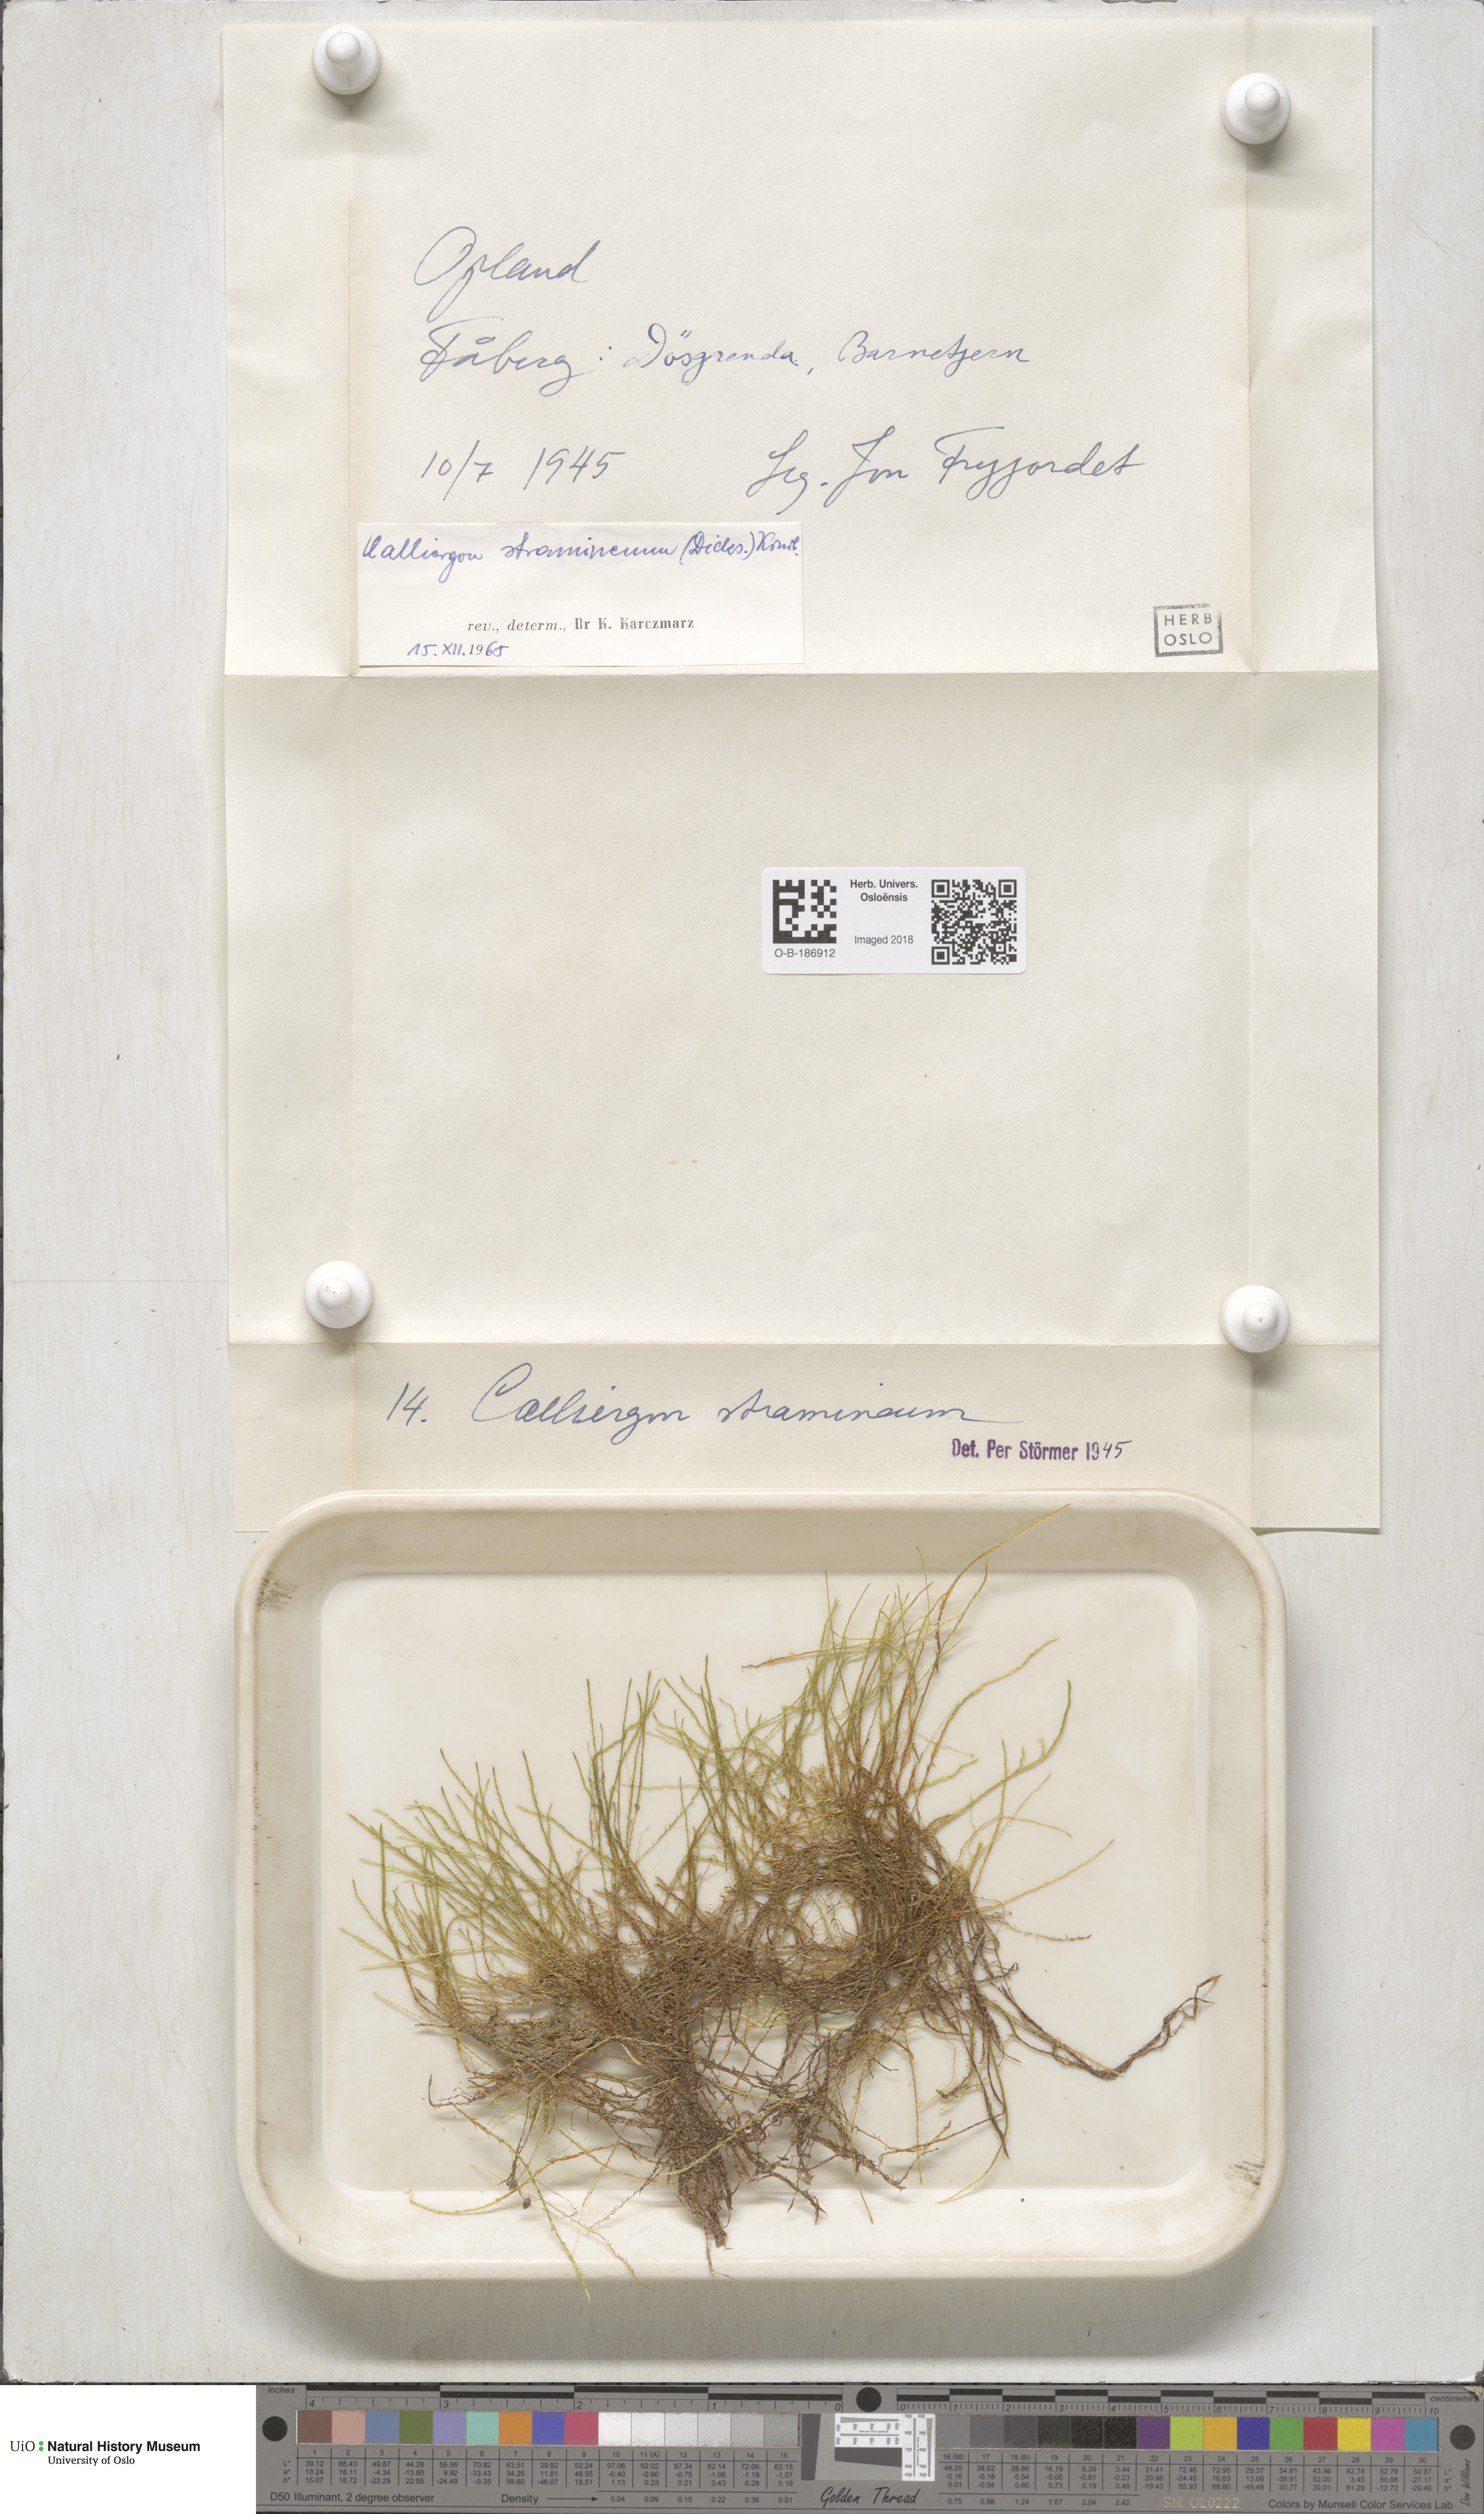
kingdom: Plantae
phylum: Bryophyta
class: Bryopsida
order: Hypnales
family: Calliergonaceae
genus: Straminergon
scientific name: Straminergon stramineum
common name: Straw moss
